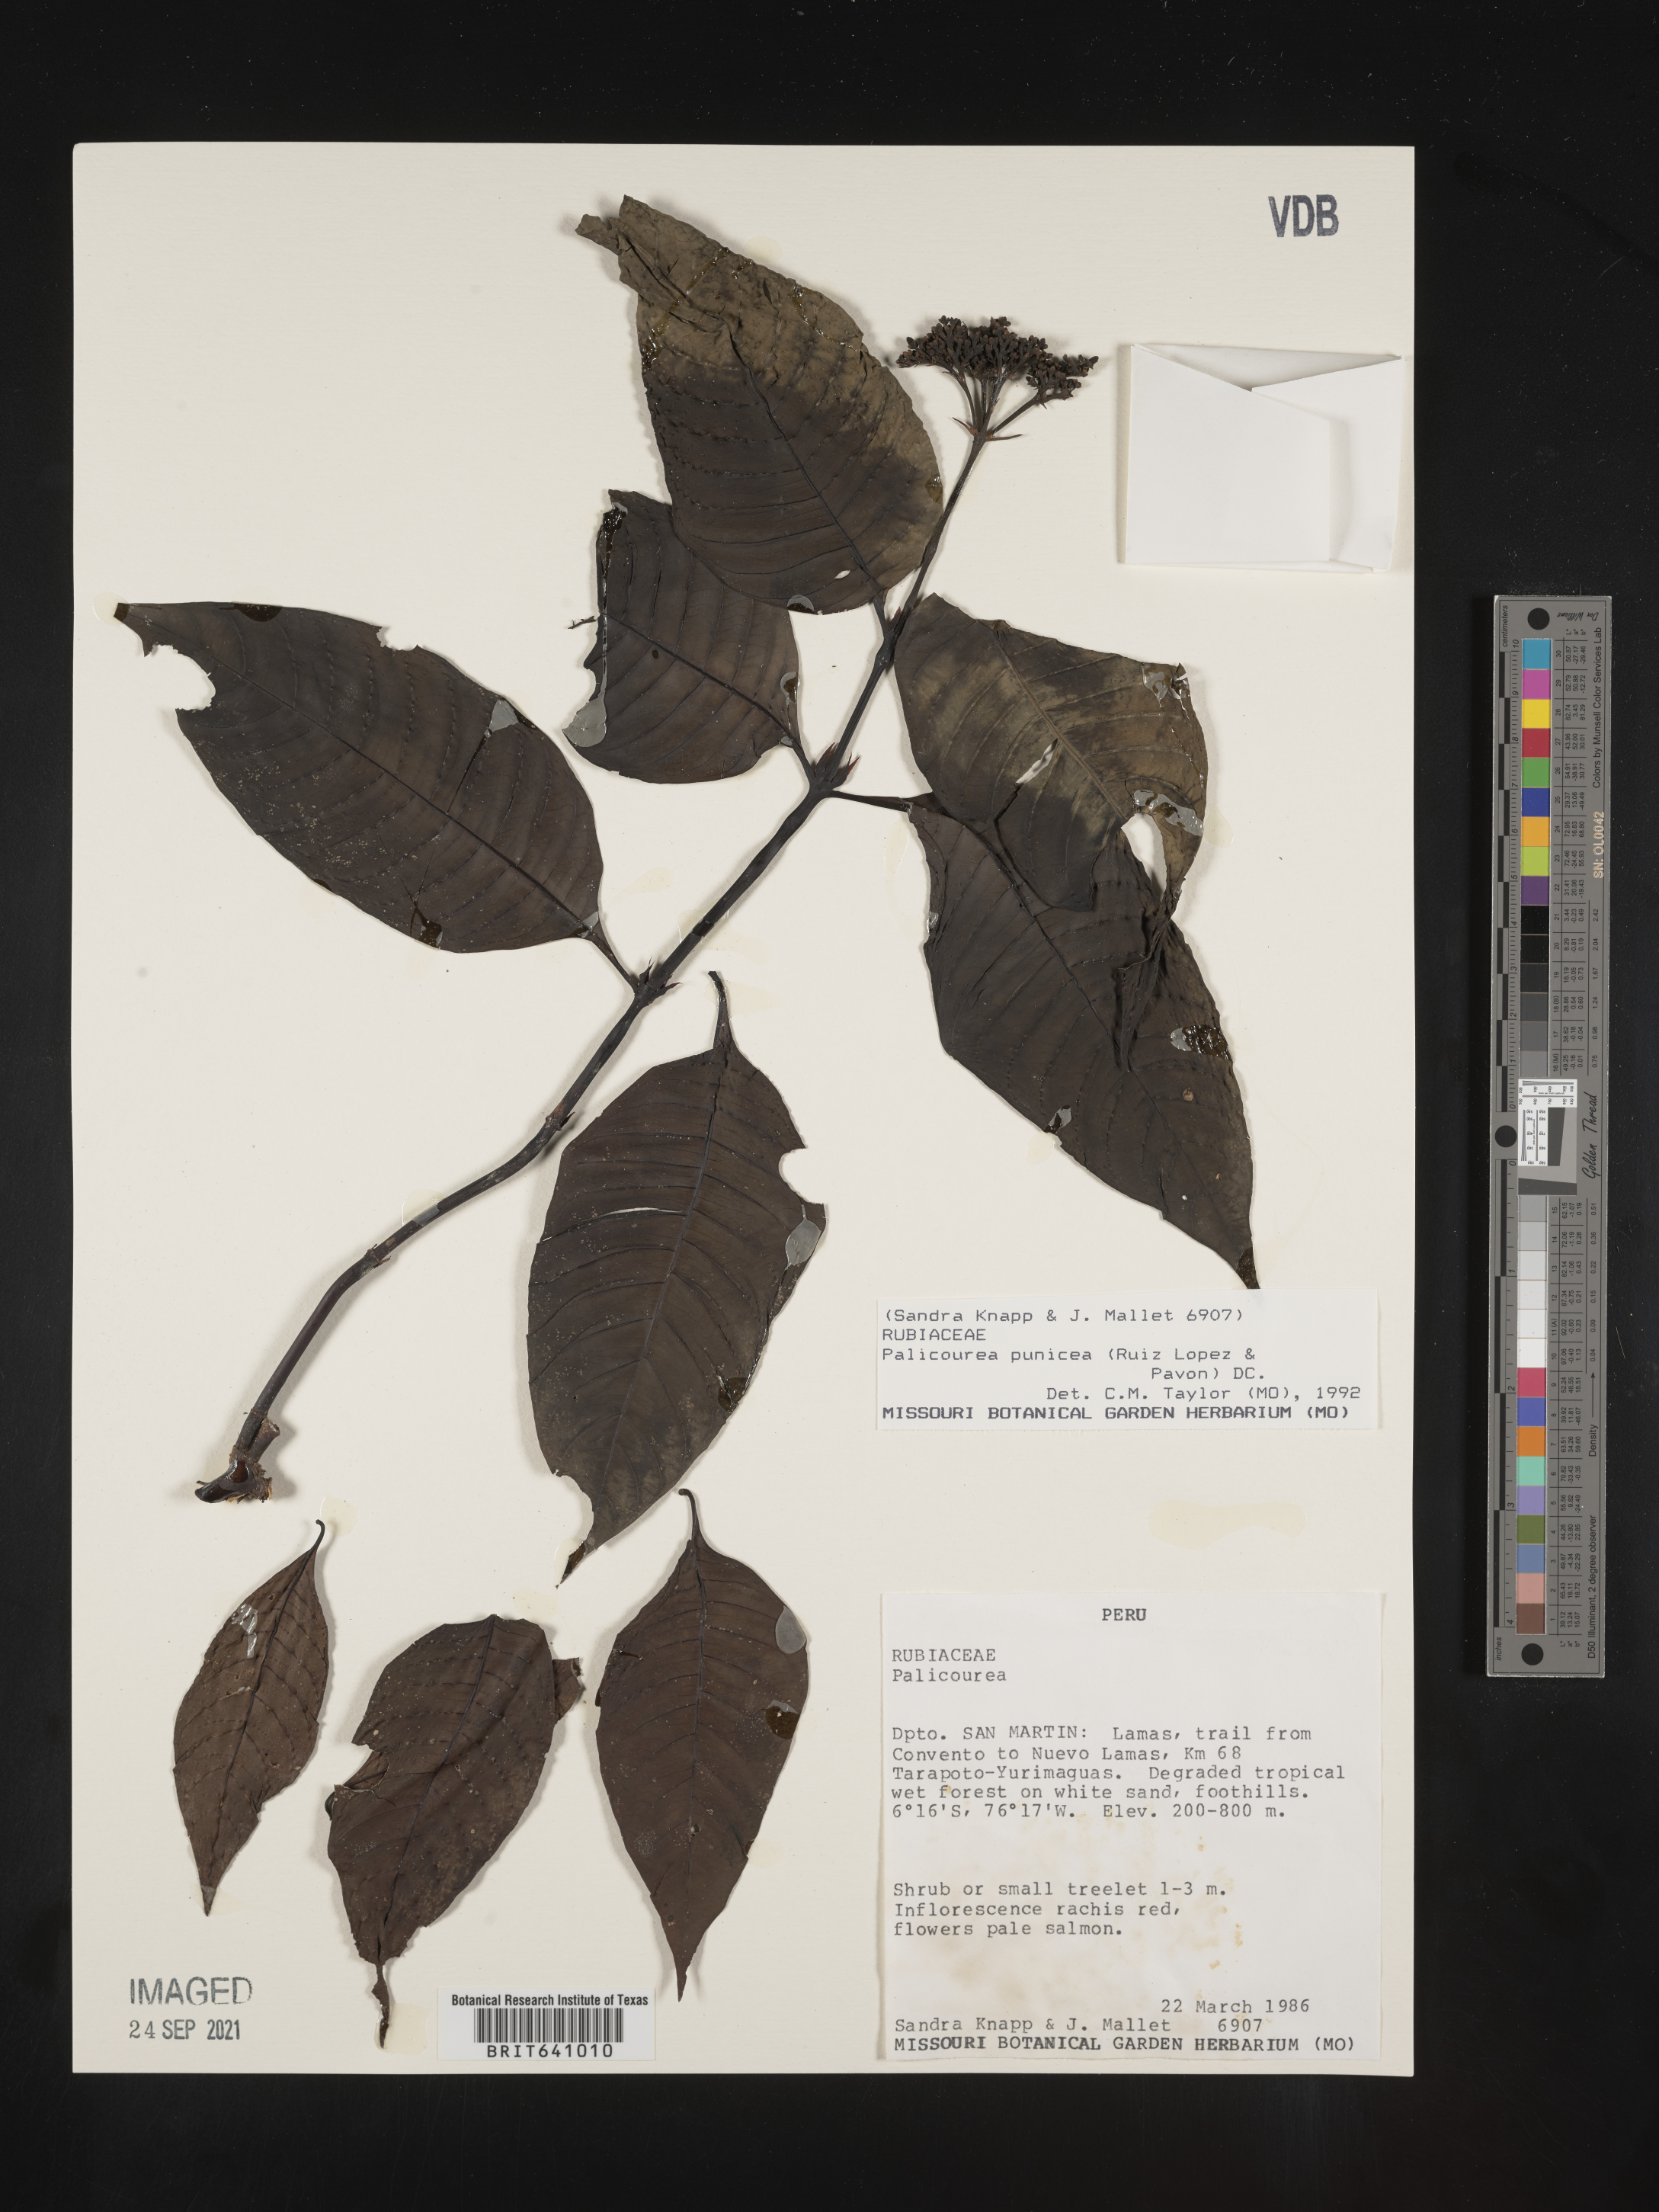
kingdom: Plantae
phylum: Tracheophyta
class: Magnoliopsida
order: Gentianales
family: Rubiaceae
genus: Palicourea
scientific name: Palicourea
